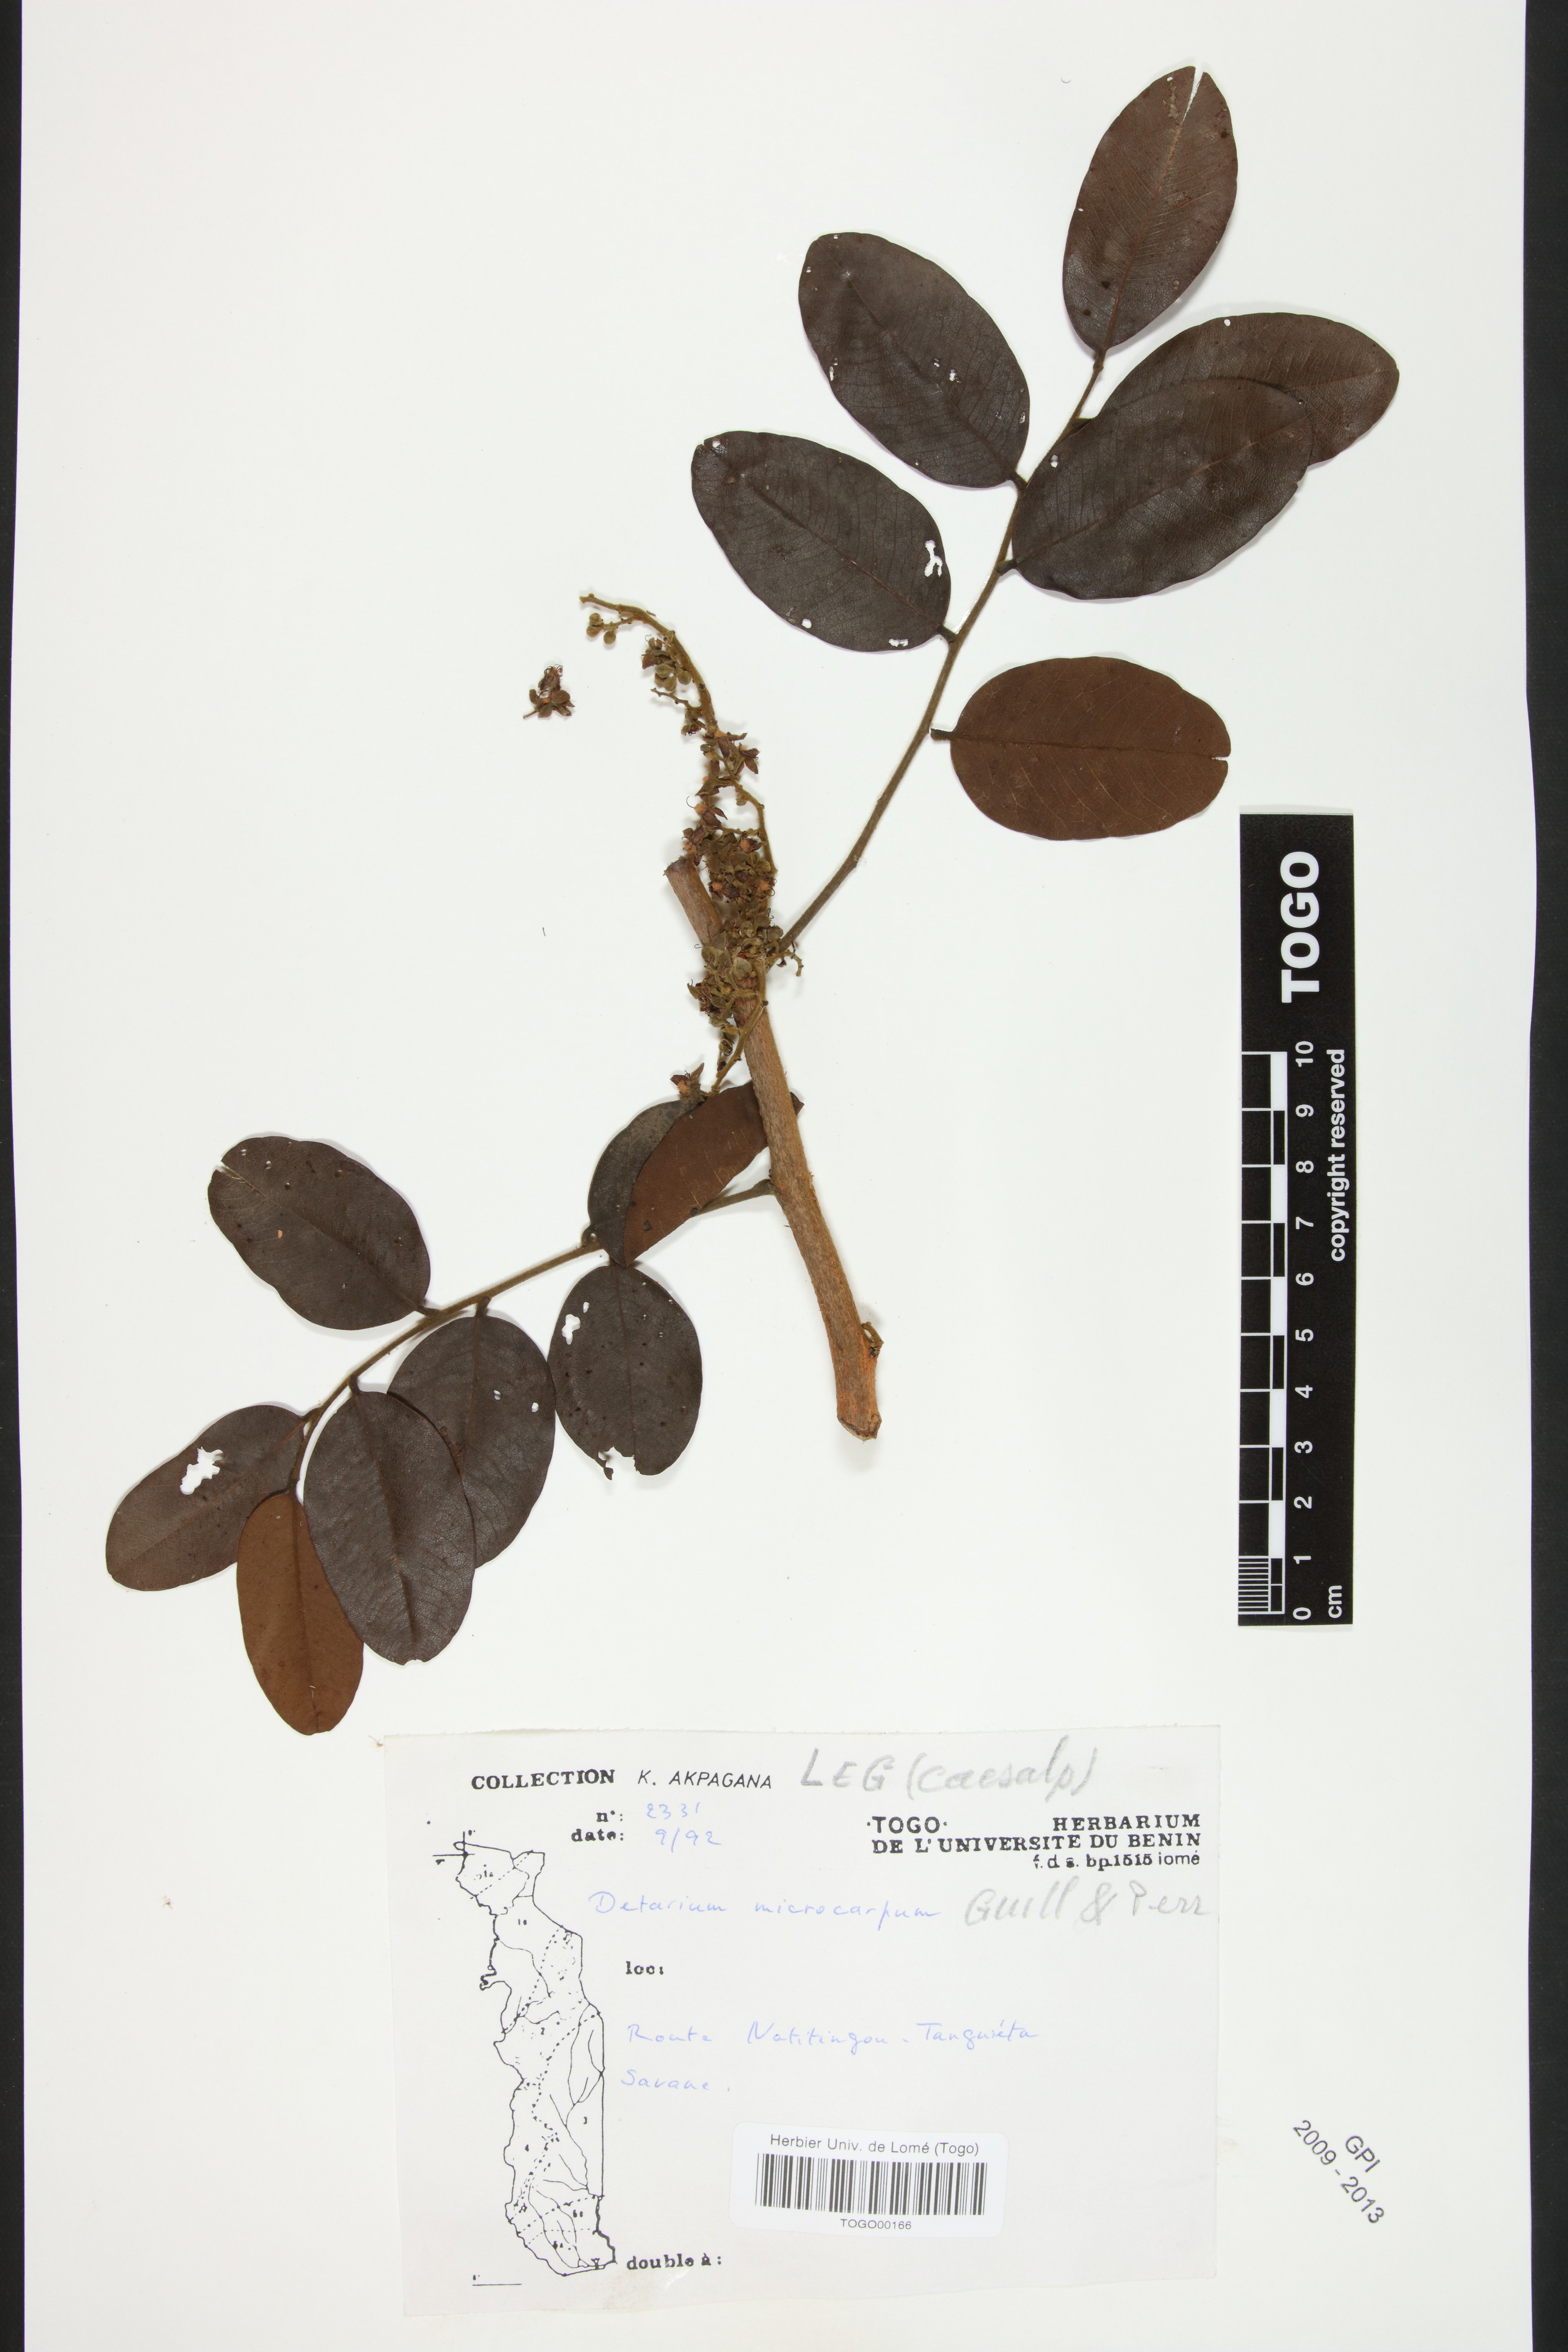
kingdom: Plantae
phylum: Tracheophyta
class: Magnoliopsida
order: Fabales
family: Fabaceae
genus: Detarium
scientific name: Detarium microcarpum
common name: Sweet dattock
